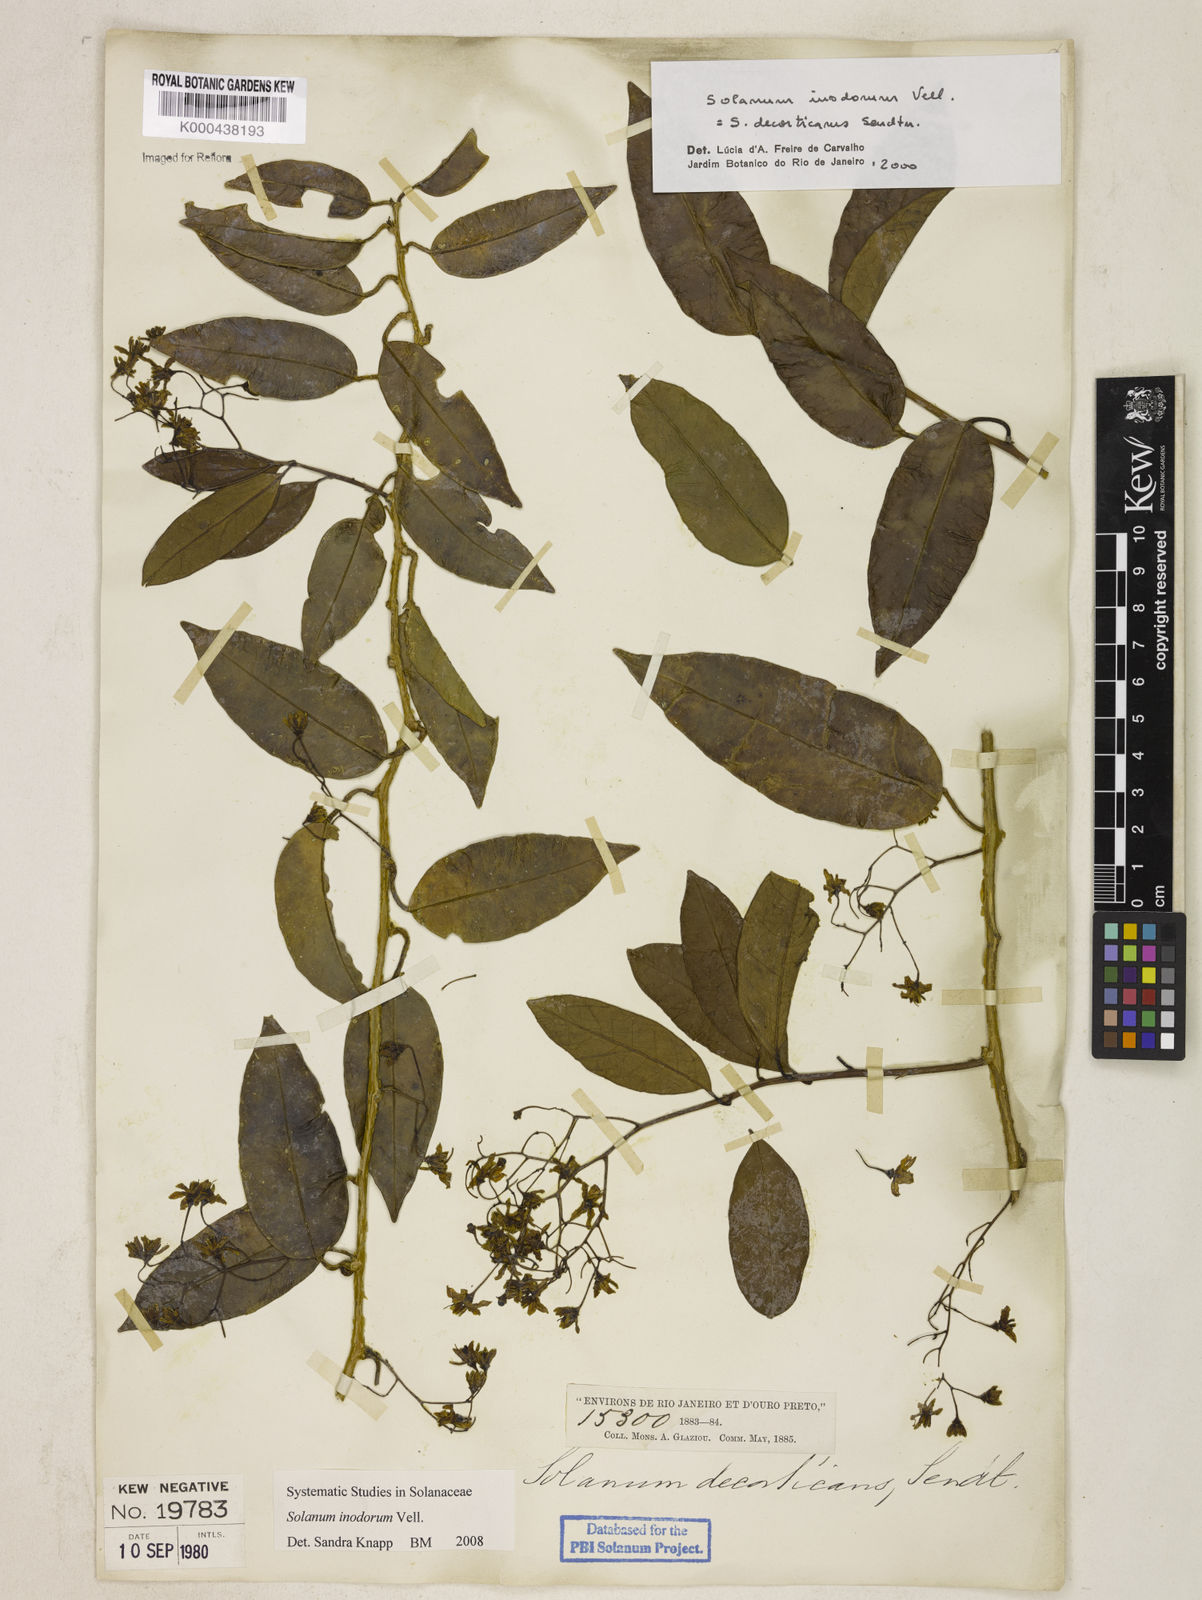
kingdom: Plantae
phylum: Tracheophyta
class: Magnoliopsida
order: Solanales
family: Solanaceae
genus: Solanum
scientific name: Solanum inodorum
